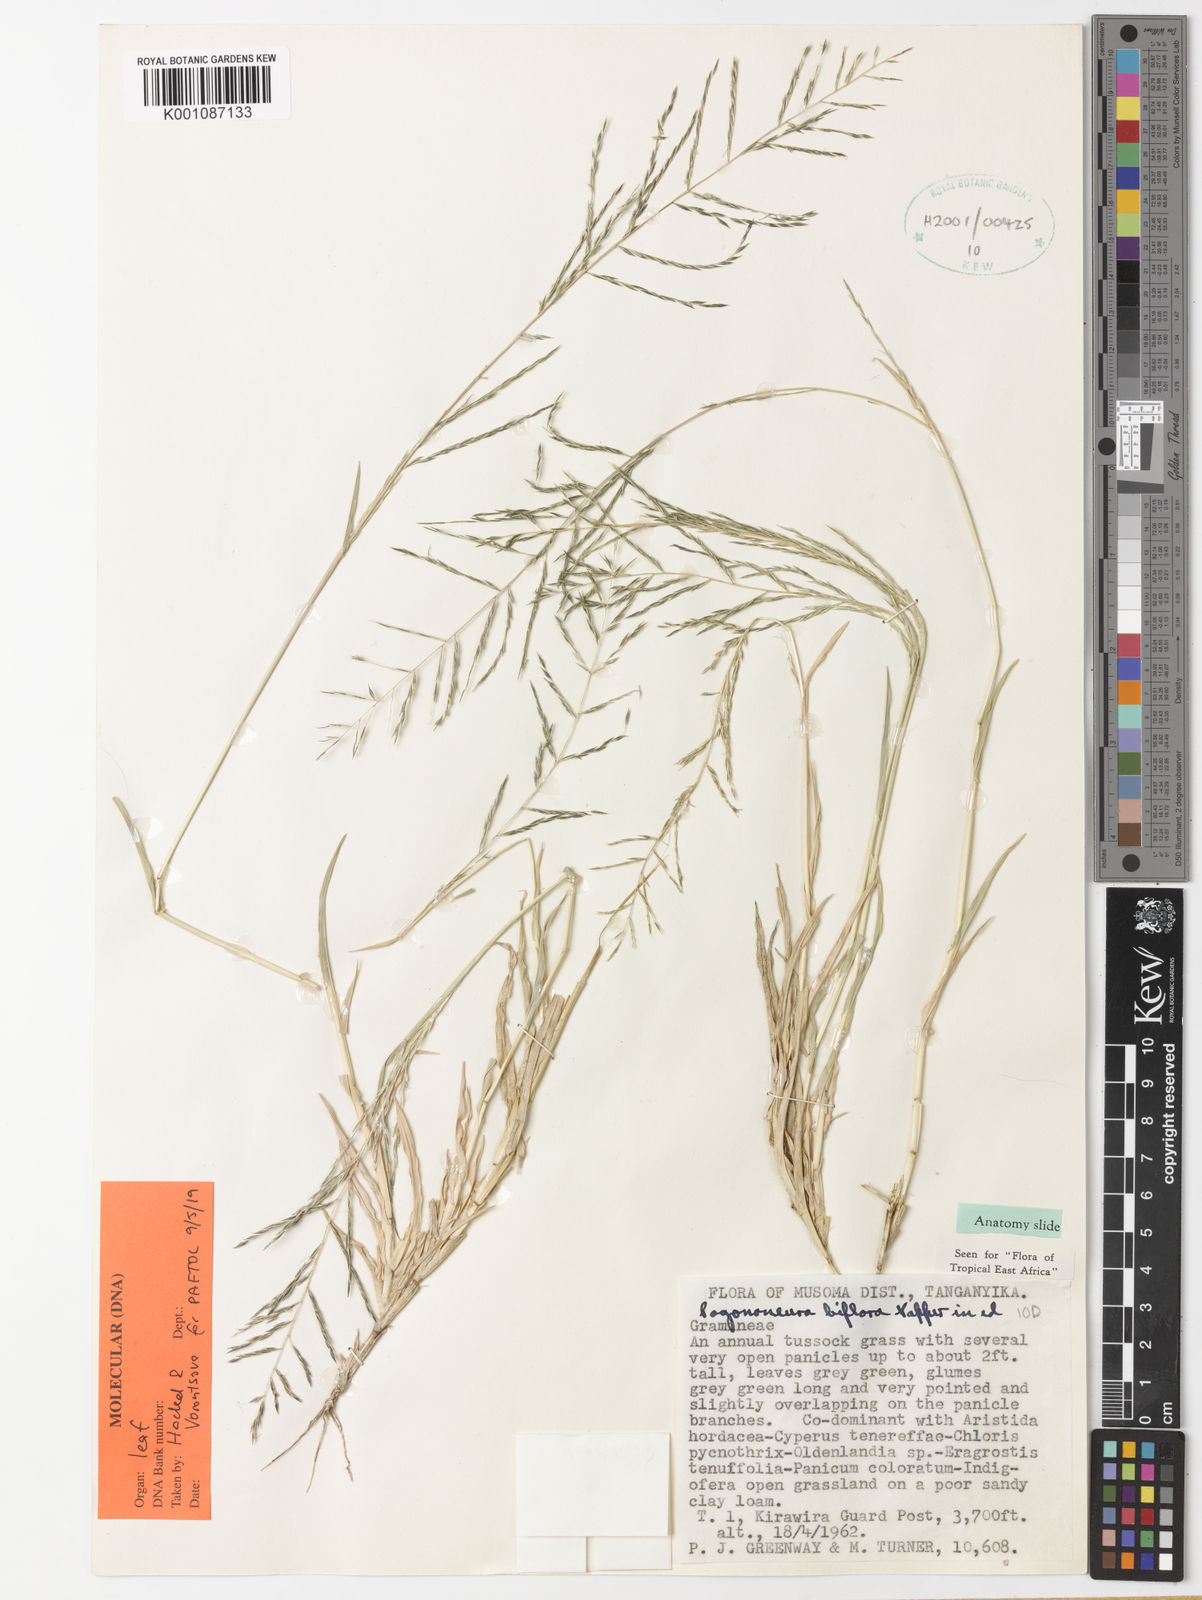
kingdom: Plantae
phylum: Tracheophyta
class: Liliopsida
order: Poales
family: Poaceae
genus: Pogononeura
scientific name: Pogononeura biflora
